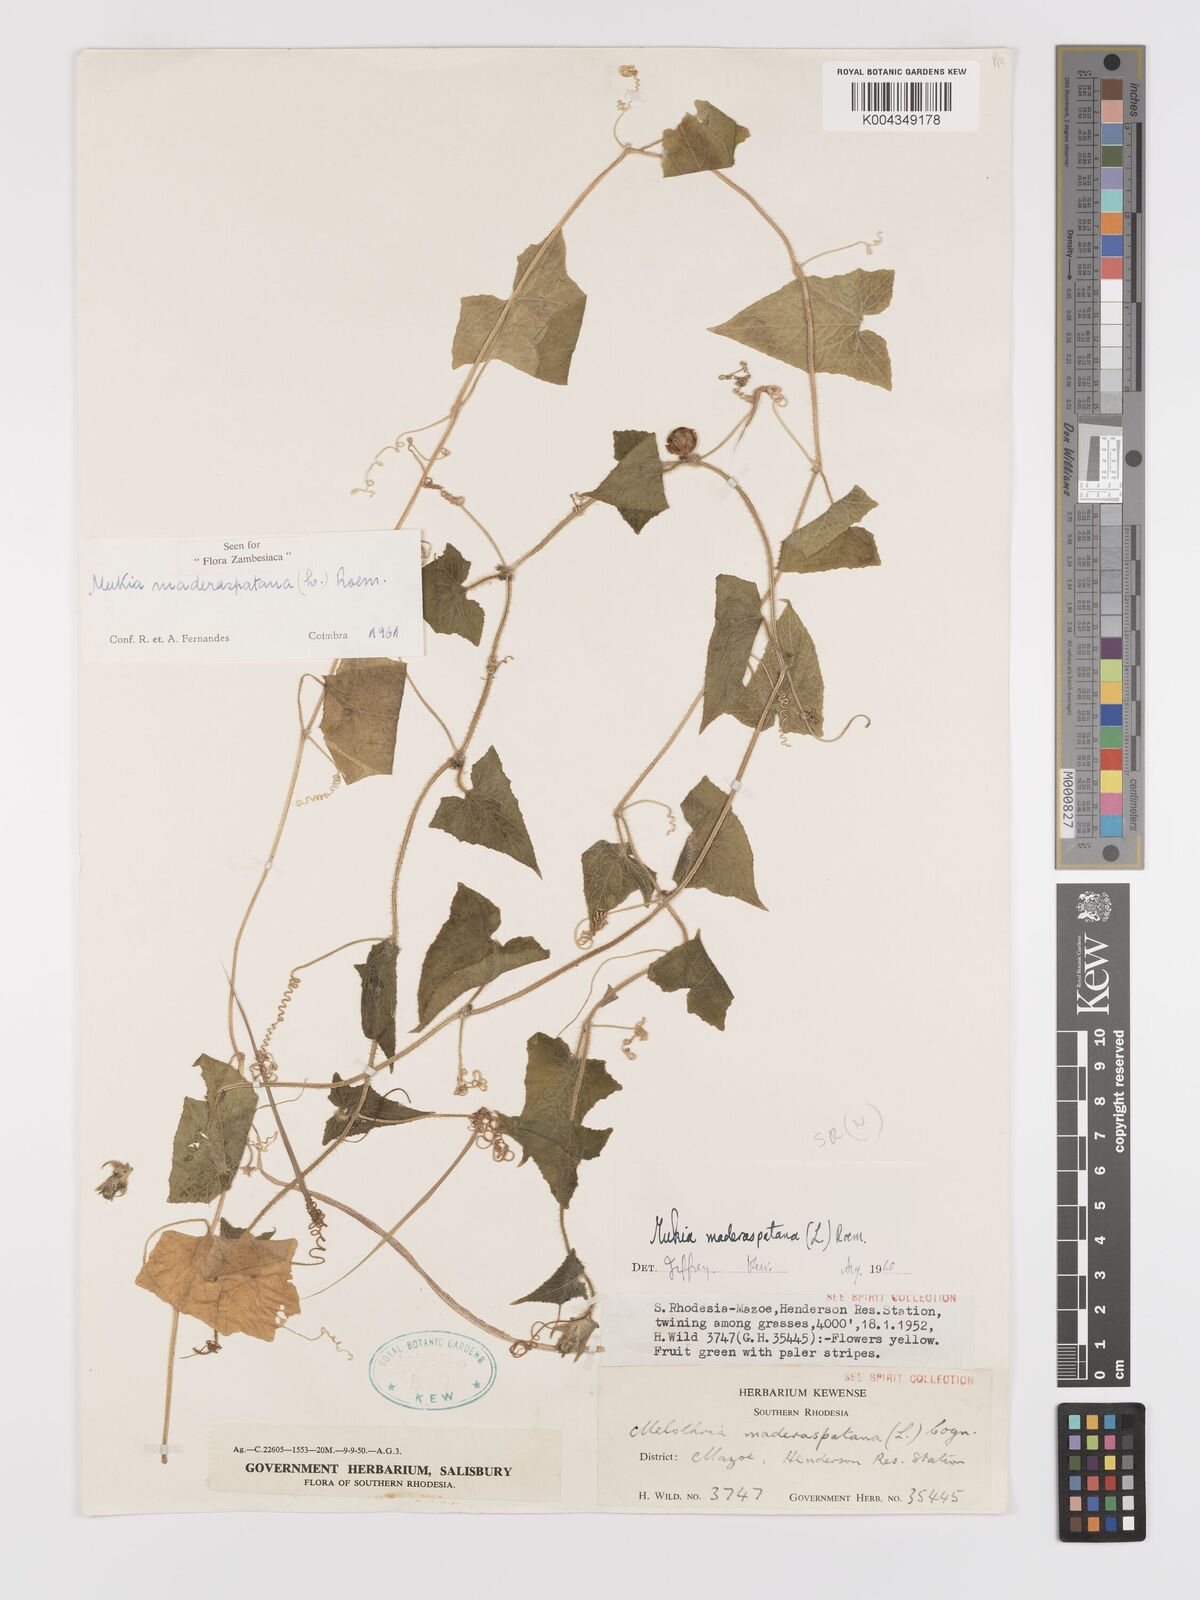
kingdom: Plantae
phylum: Tracheophyta
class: Magnoliopsida
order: Cucurbitales
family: Cucurbitaceae
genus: Cucumis
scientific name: Cucumis maderaspatanus
